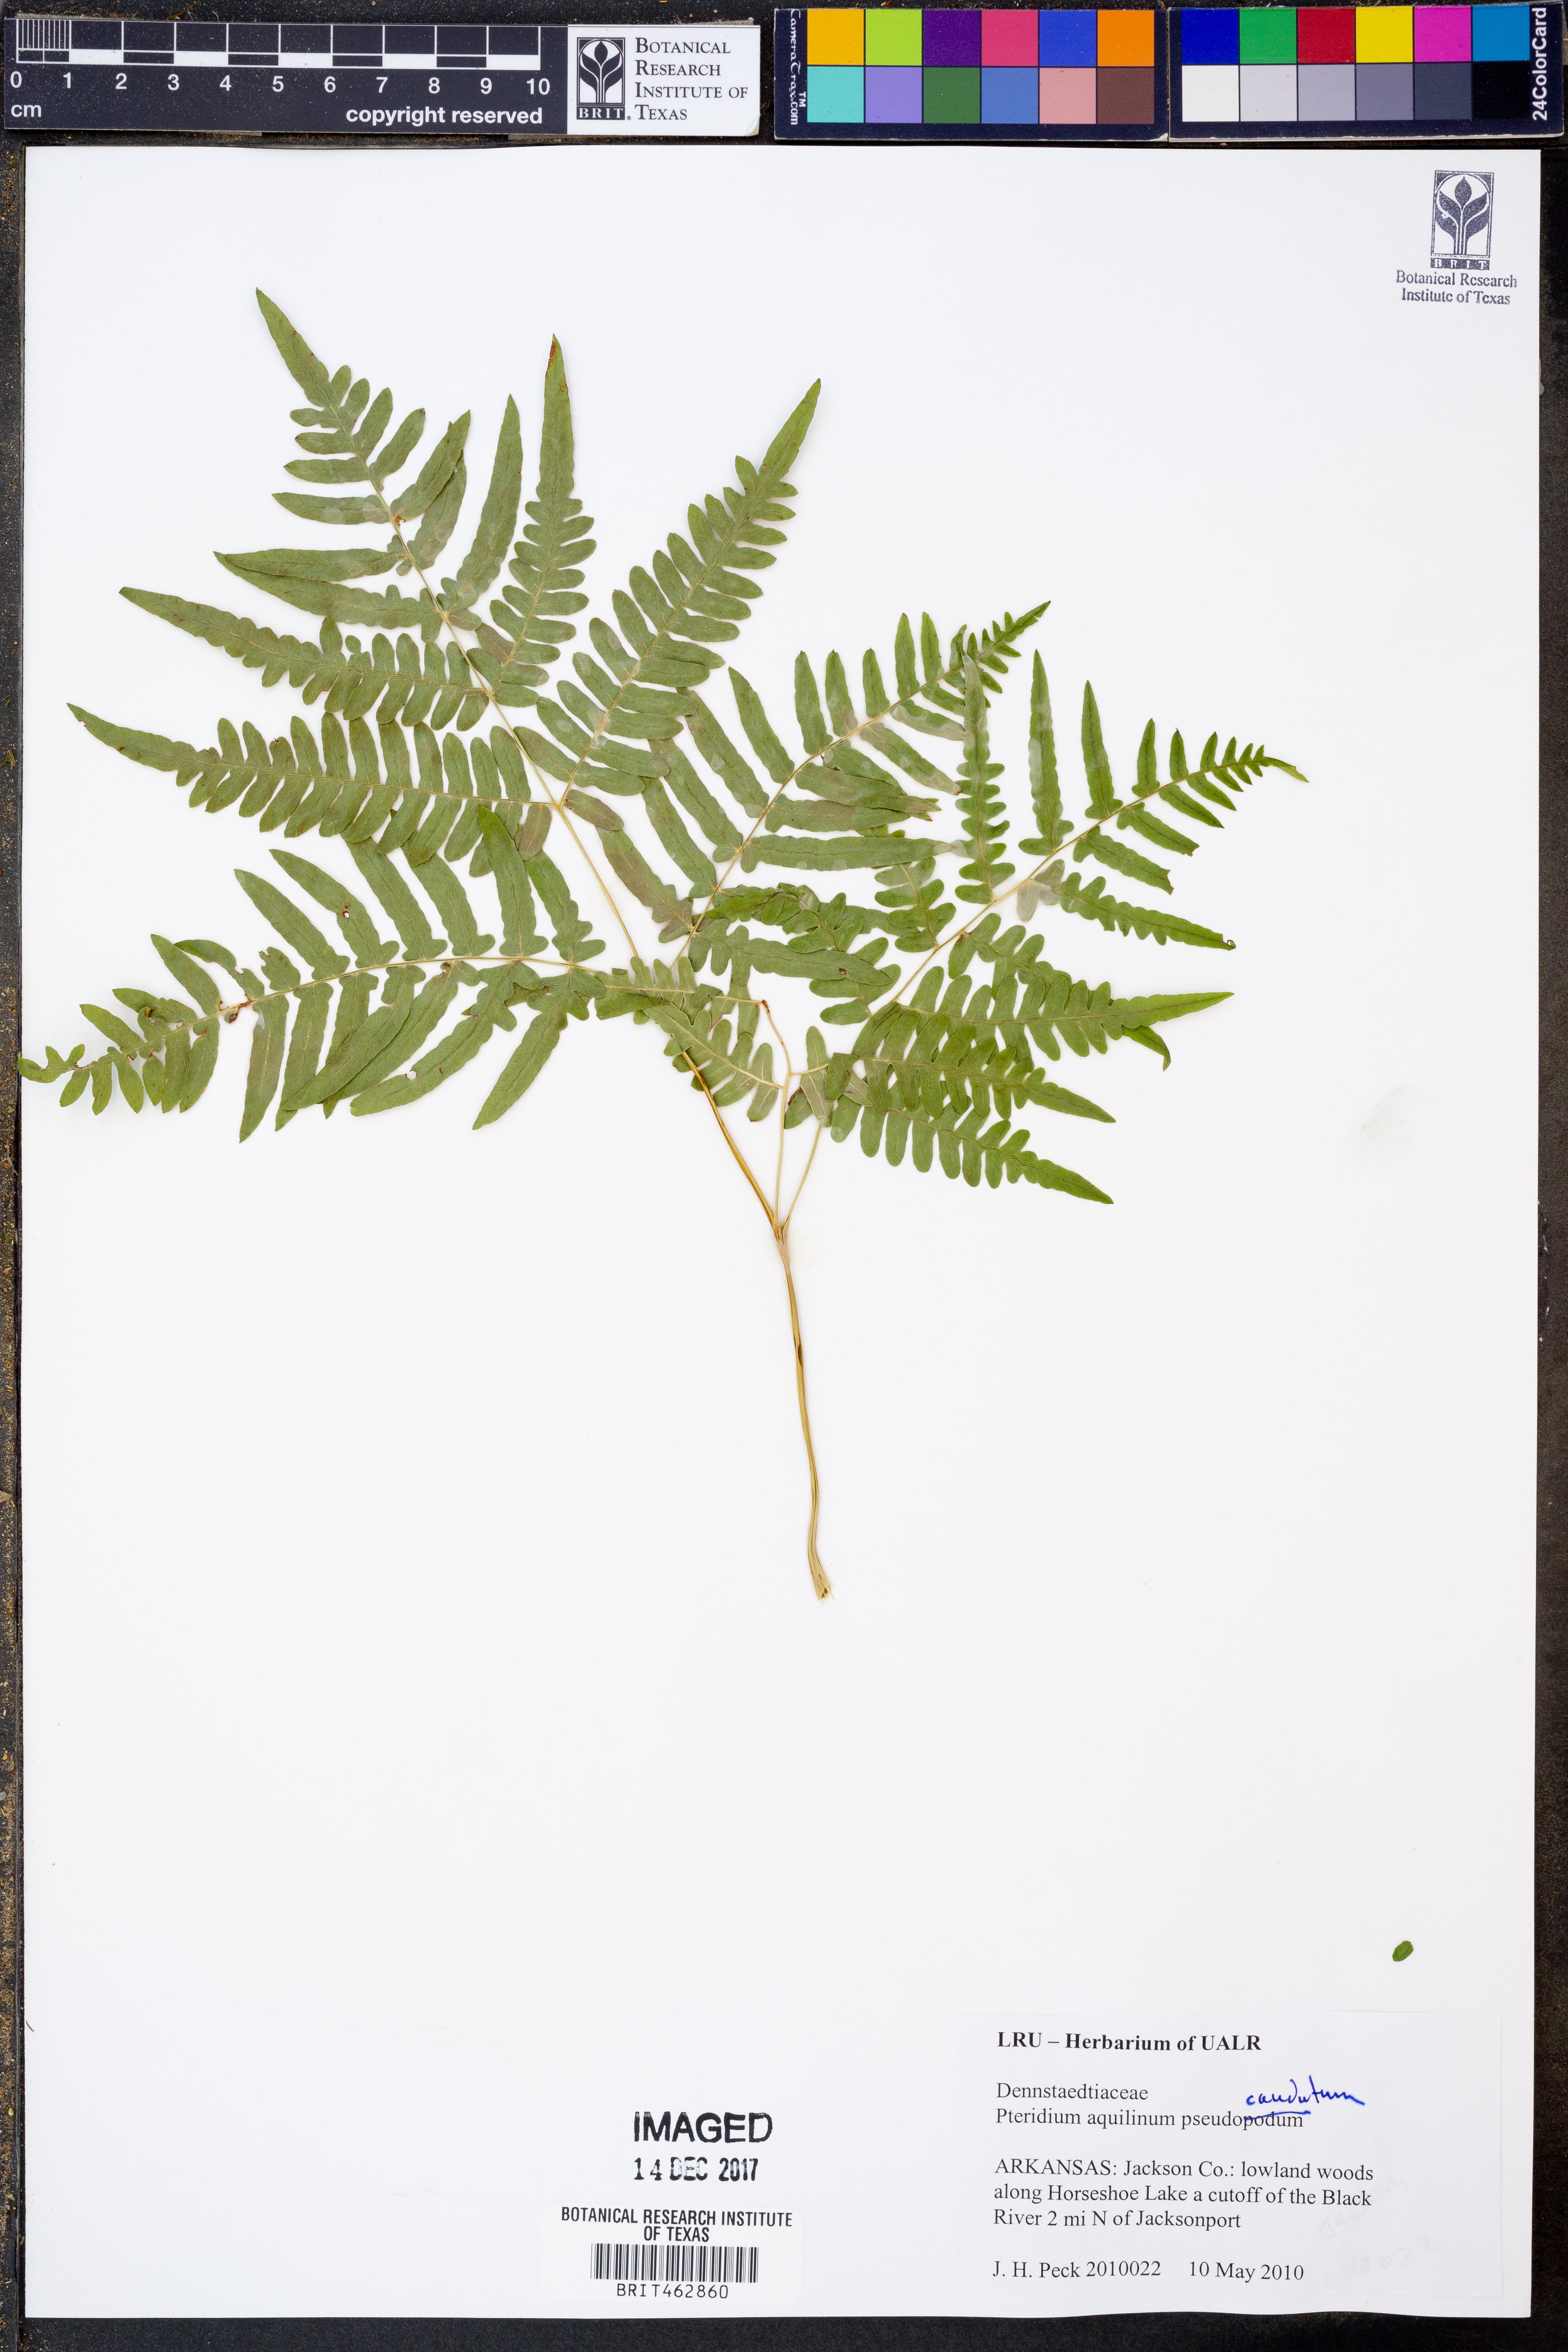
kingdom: Plantae
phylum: Tracheophyta
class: Polypodiopsida
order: Polypodiales
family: Dennstaedtiaceae
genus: Pteridium
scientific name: Pteridium aquilinum
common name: Bracken
